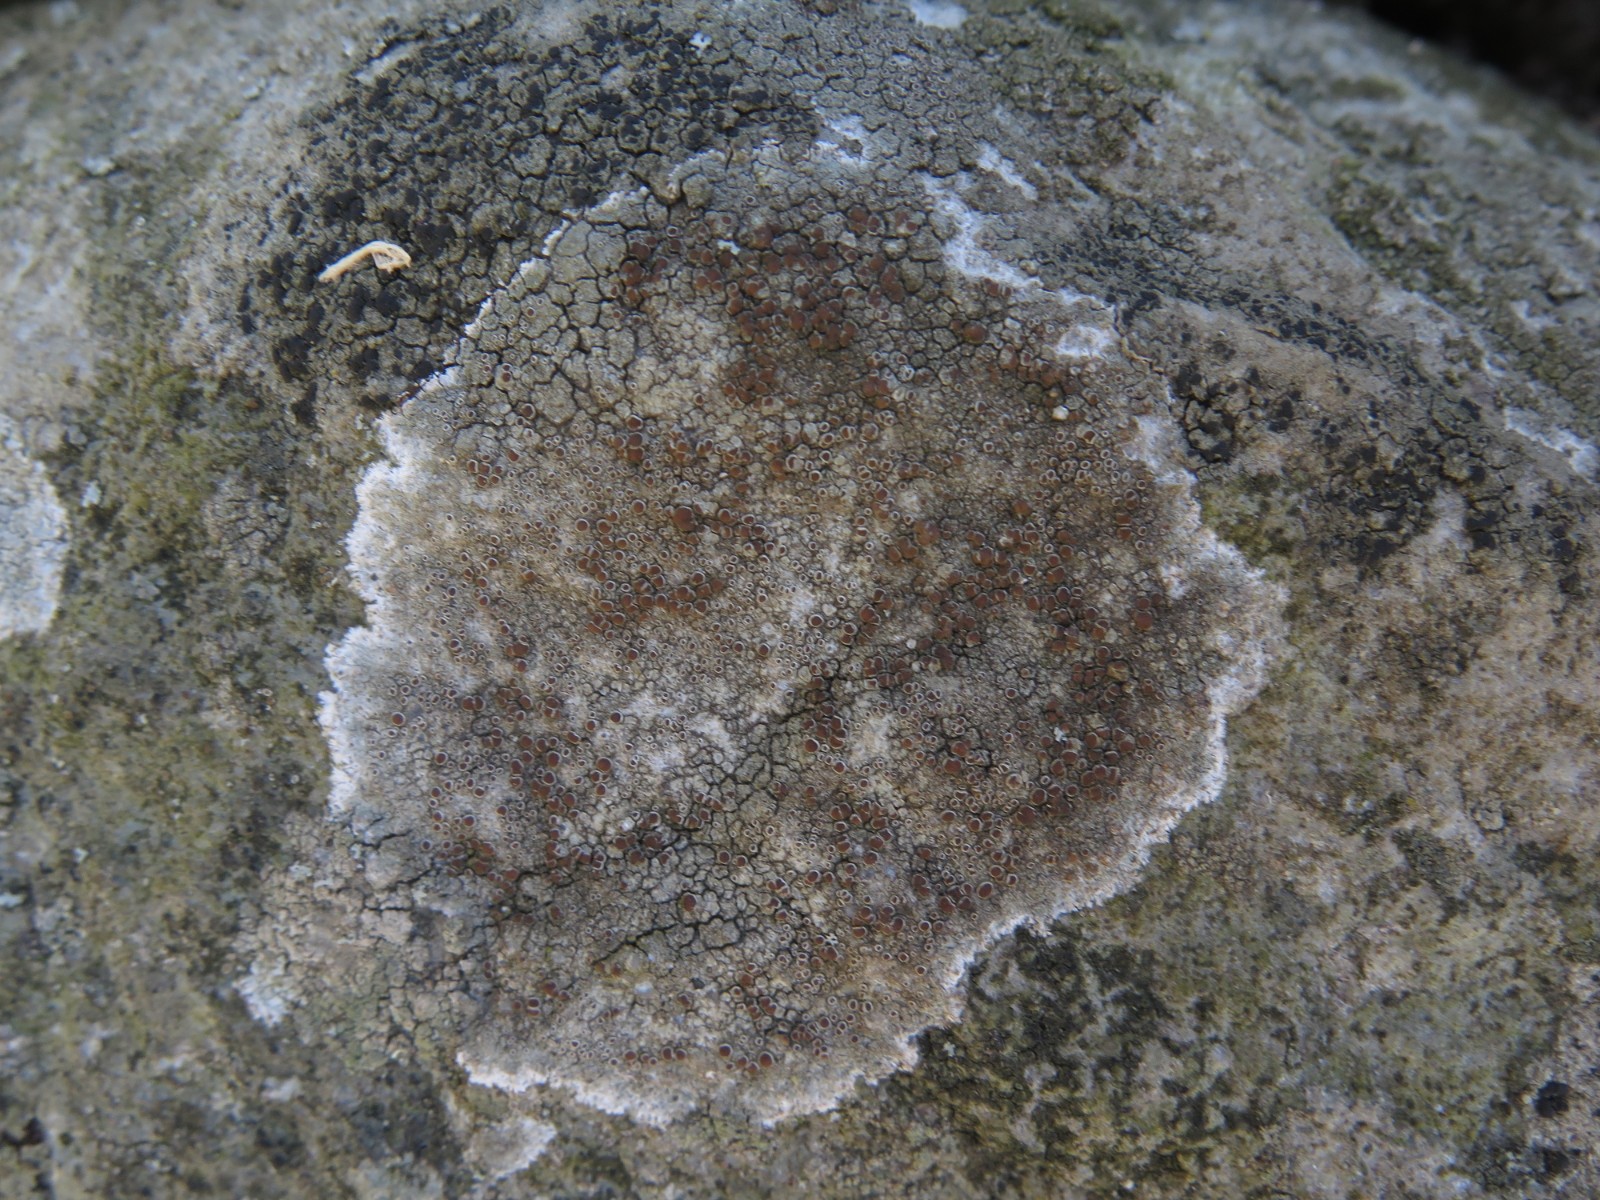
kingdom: Fungi
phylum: Ascomycota
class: Lecanoromycetes
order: Lecanorales
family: Lecanoraceae
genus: Lecanora
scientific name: Lecanora campestris
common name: mur-kantskivelav
